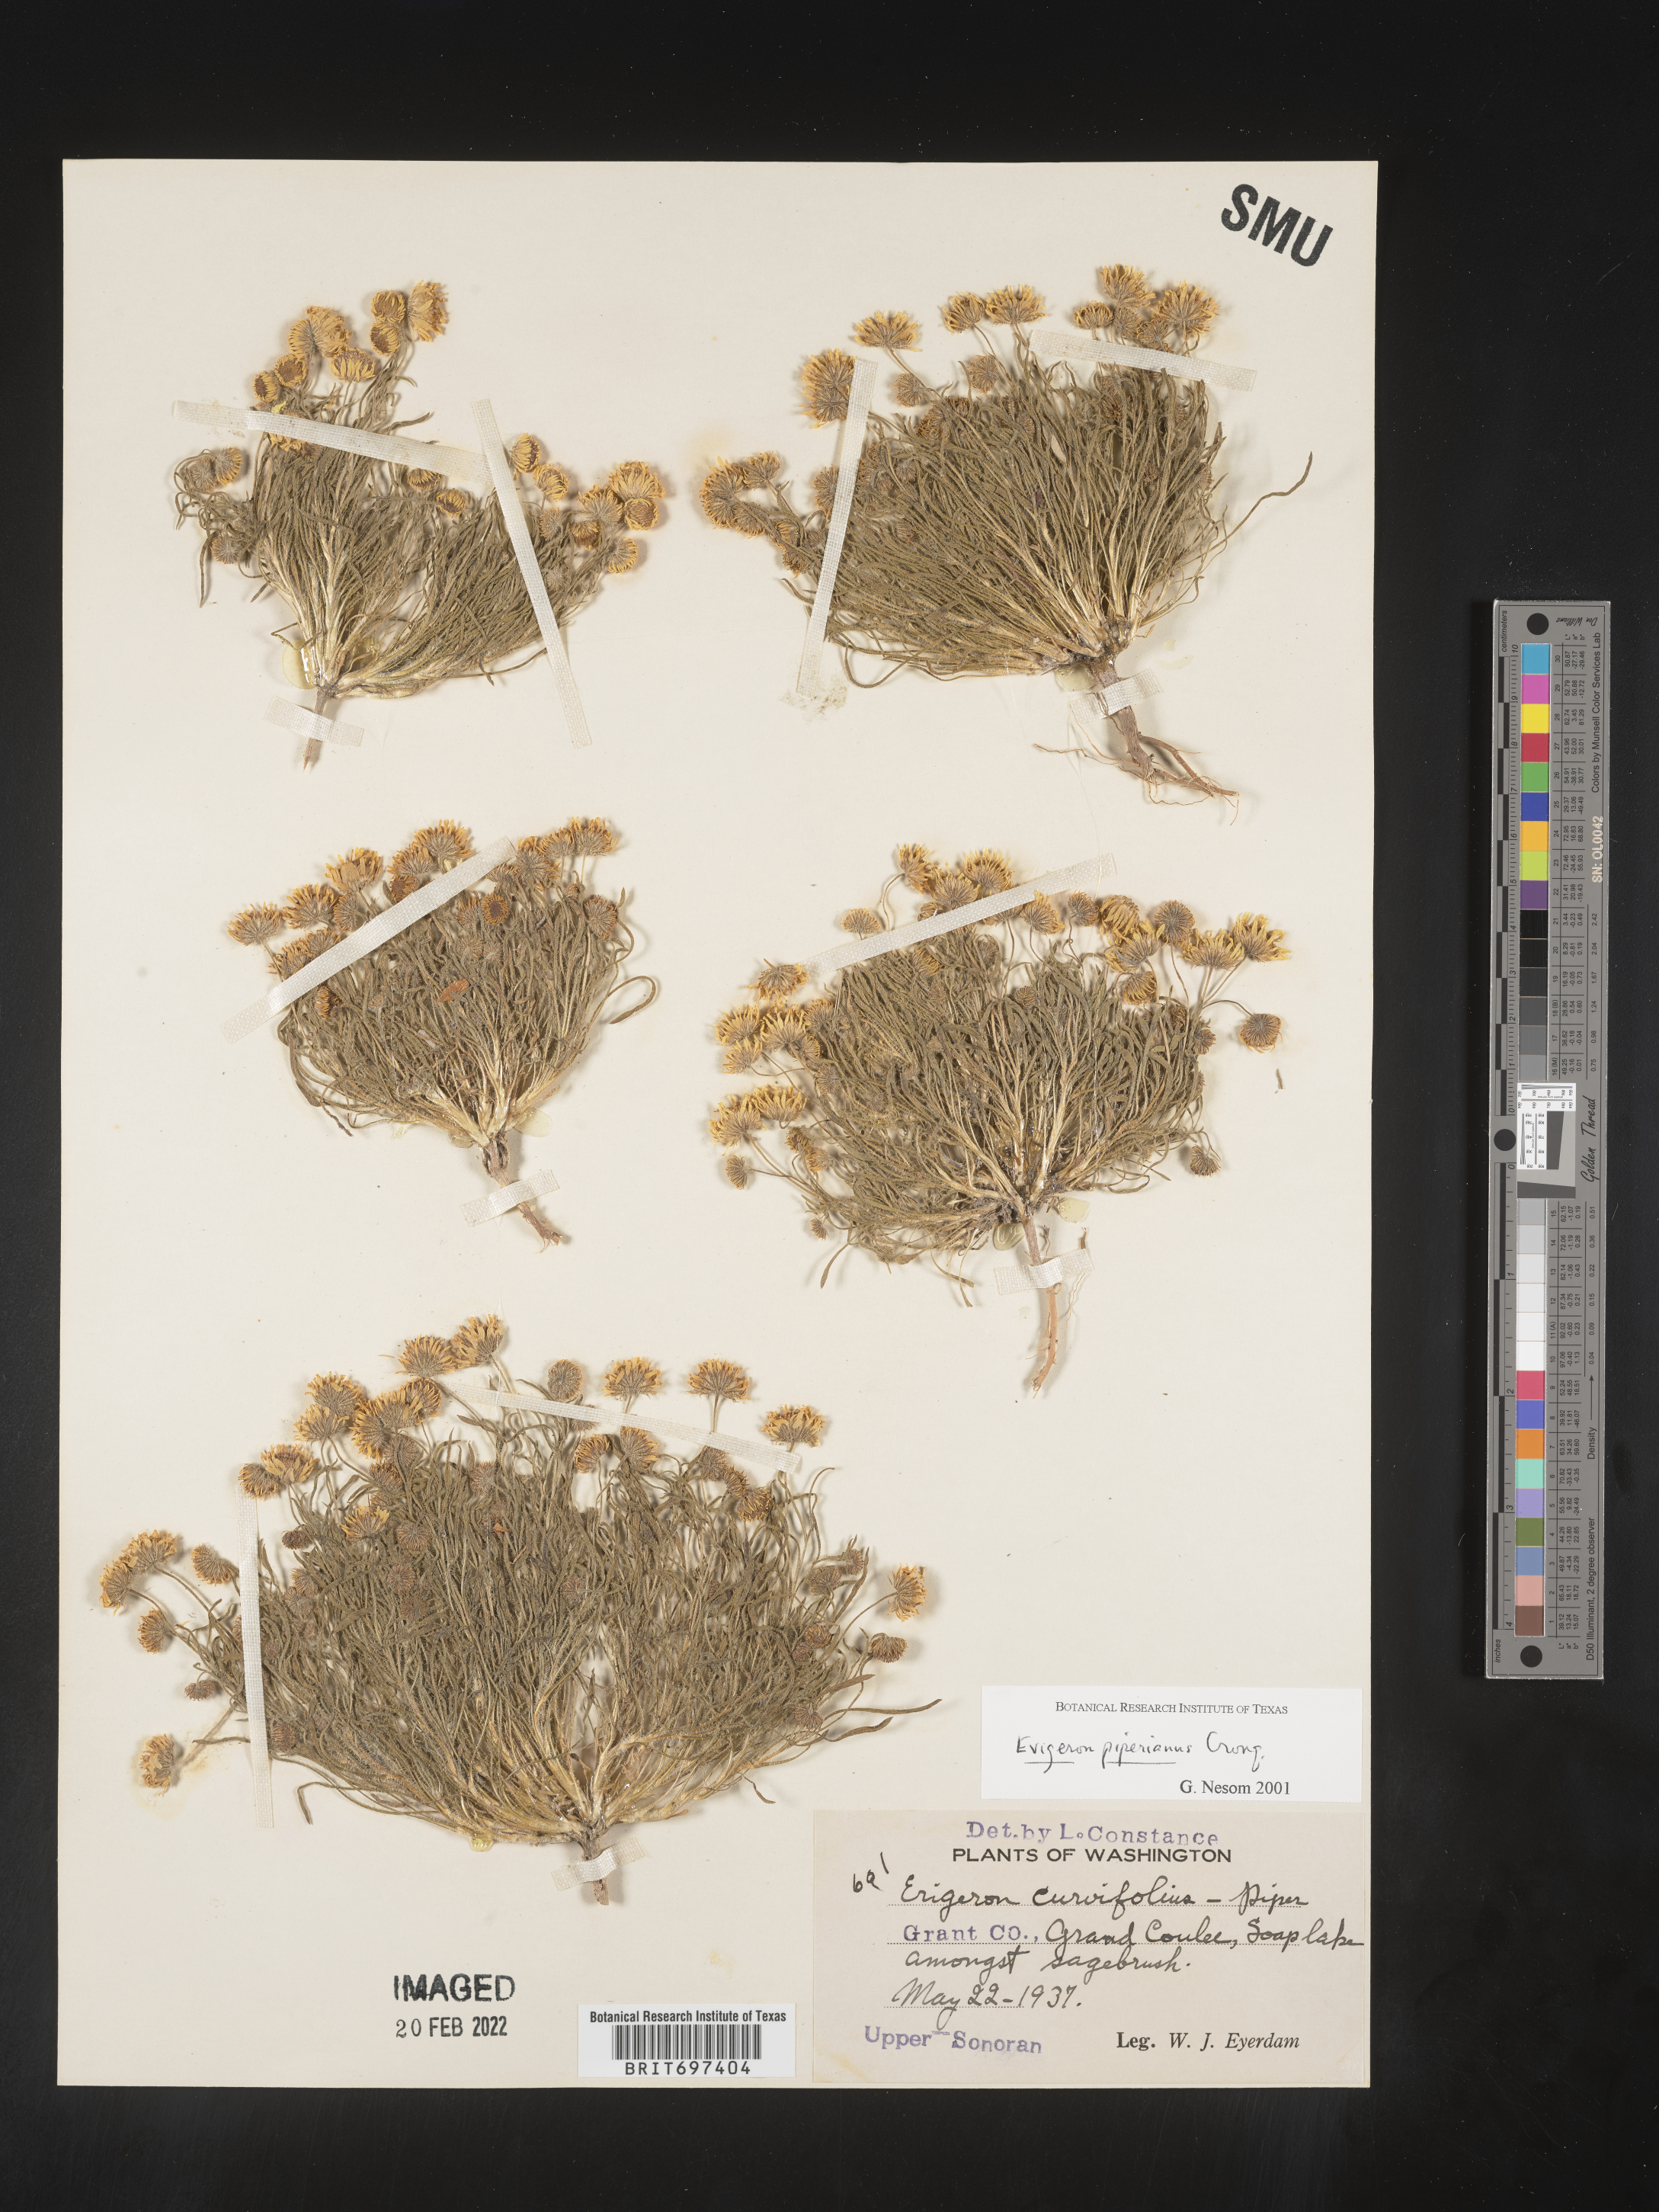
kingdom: Plantae
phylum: Tracheophyta
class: Magnoliopsida
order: Asterales
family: Asteraceae
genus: Erigeron
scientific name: Erigeron piperianus
